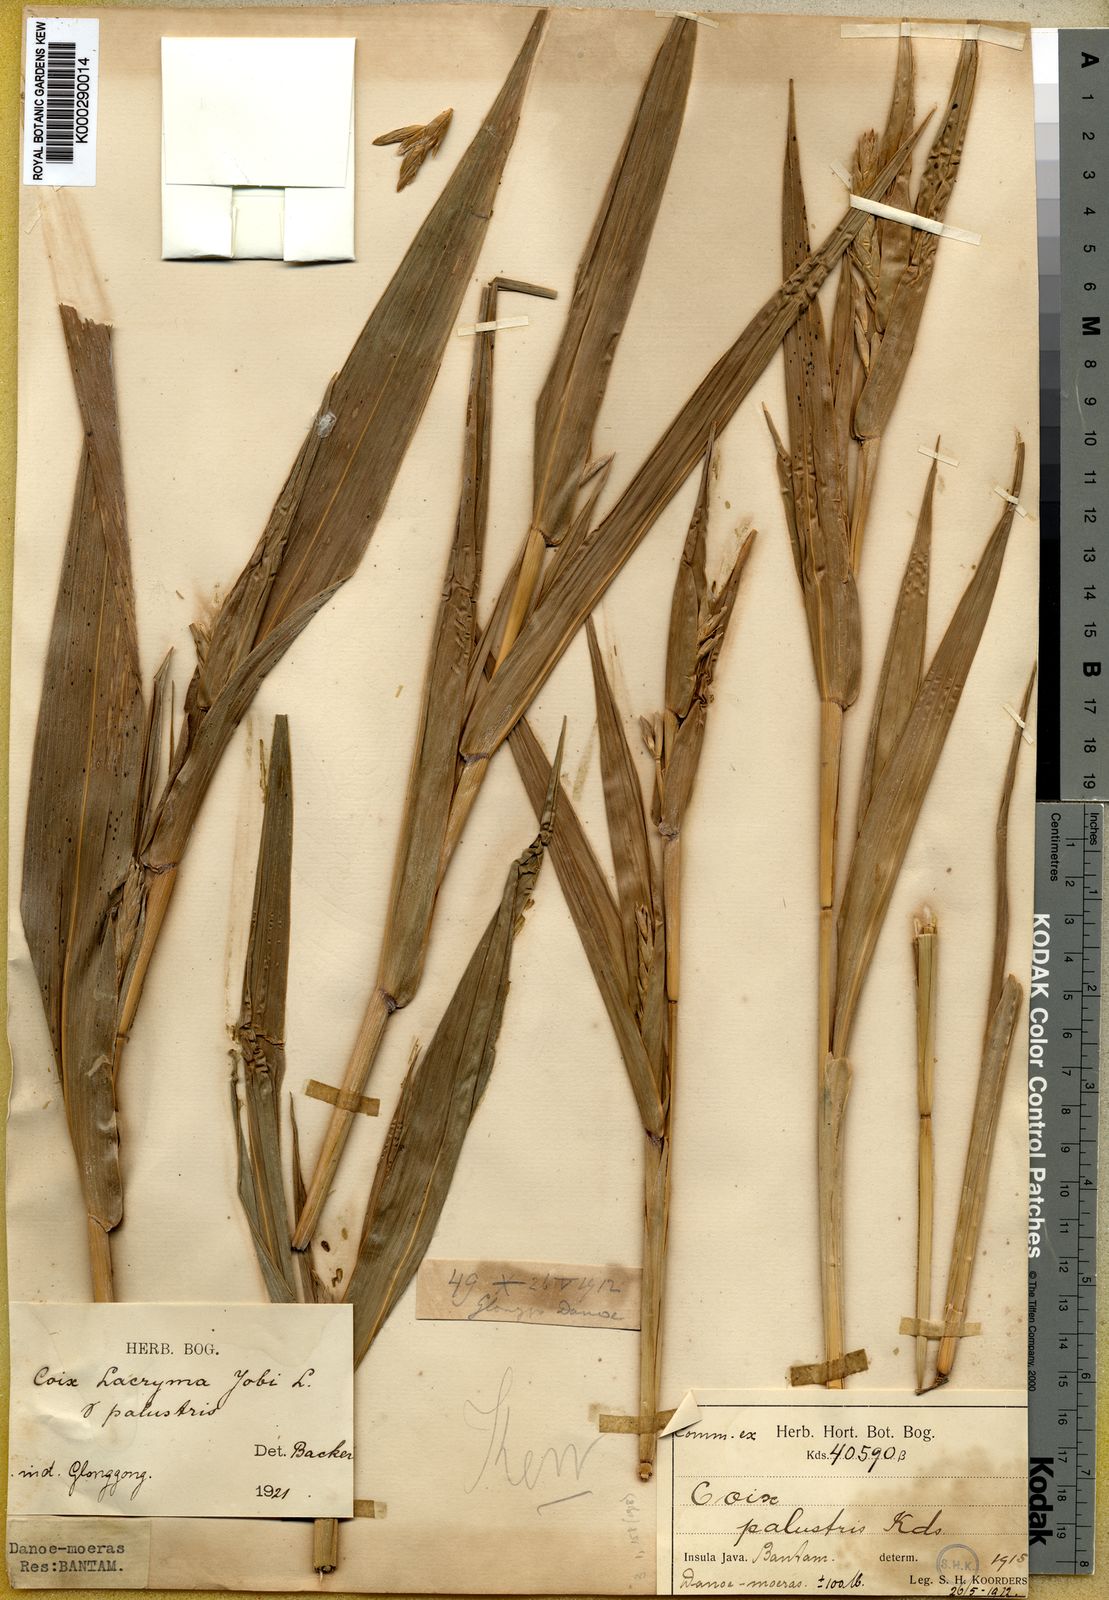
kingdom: Plantae
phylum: Tracheophyta
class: Liliopsida
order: Poales
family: Poaceae
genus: Coix
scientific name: Coix lacryma-jobi
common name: Job's tears
